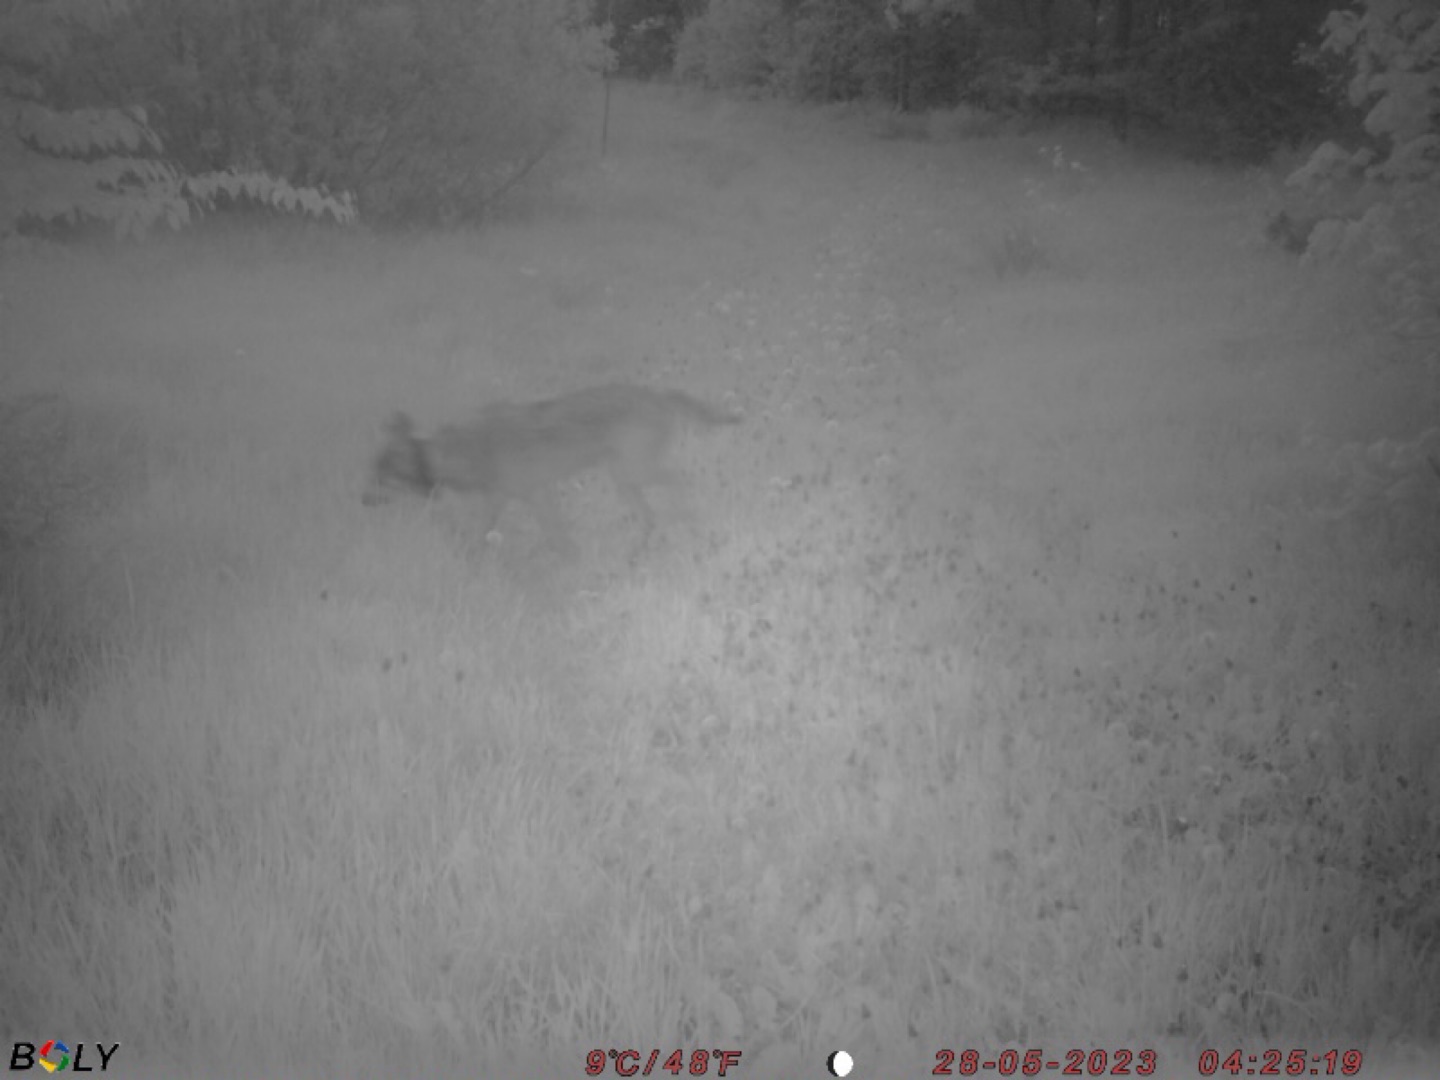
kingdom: Animalia
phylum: Chordata
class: Mammalia
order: Carnivora
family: Canidae
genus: Canis
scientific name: Canis lupus
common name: Ulv
